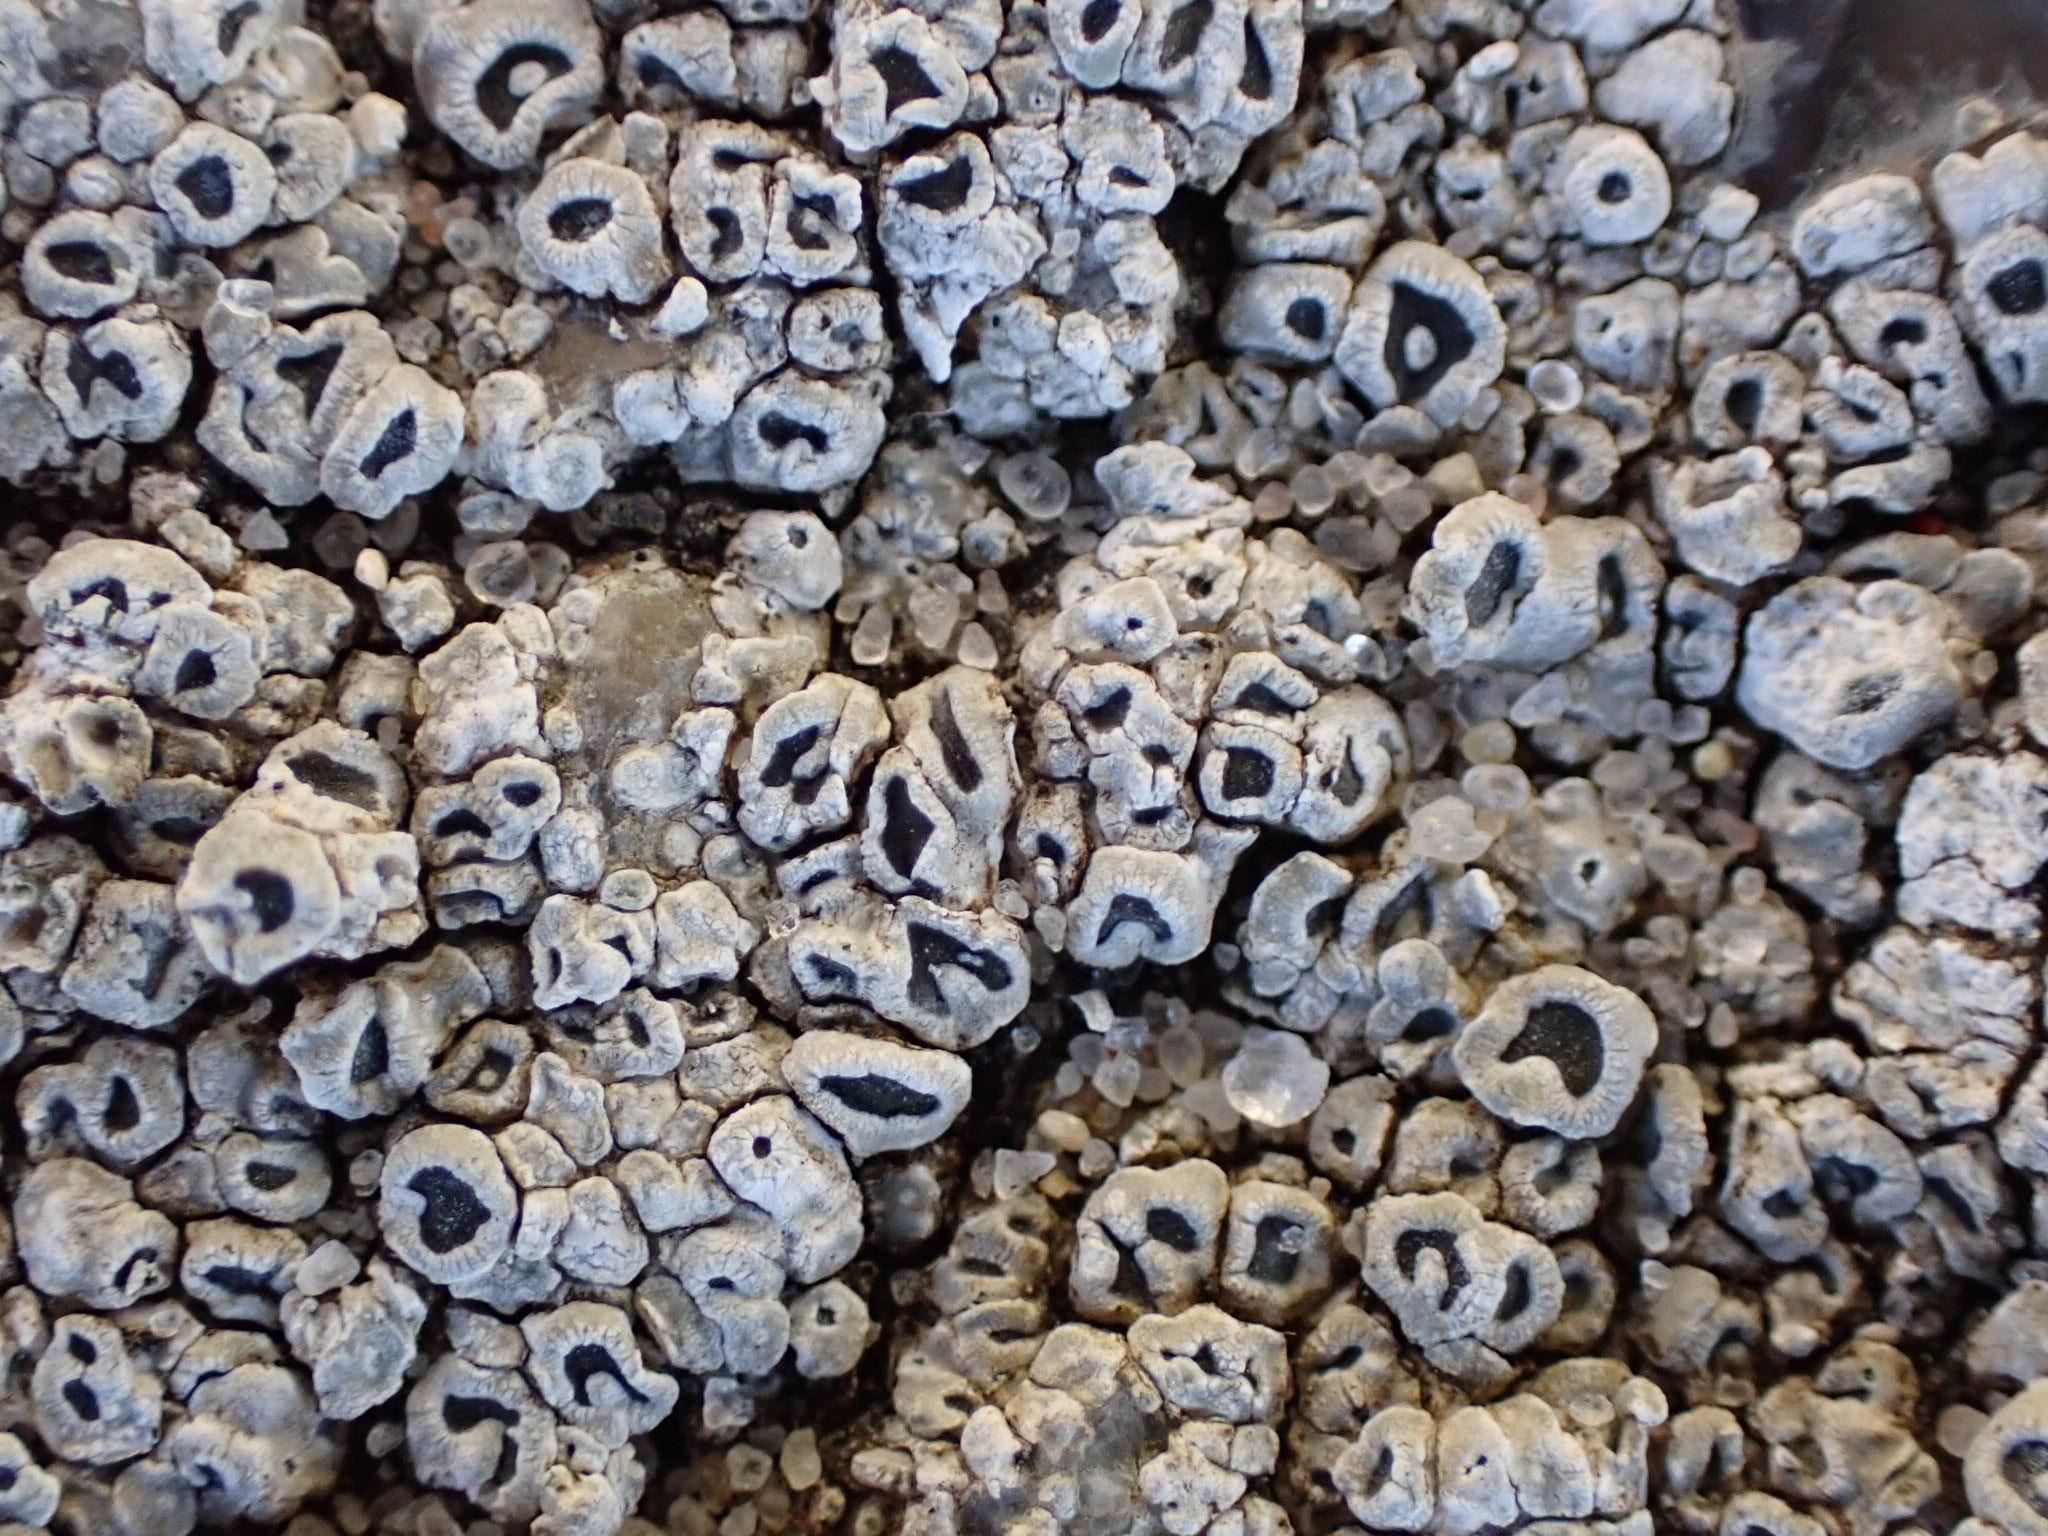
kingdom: Fungi
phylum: Ascomycota
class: Lecanoromycetes
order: Pertusariales
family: Megasporaceae
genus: Circinaria
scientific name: Circinaria contorta
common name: indviklet hulskivelav
